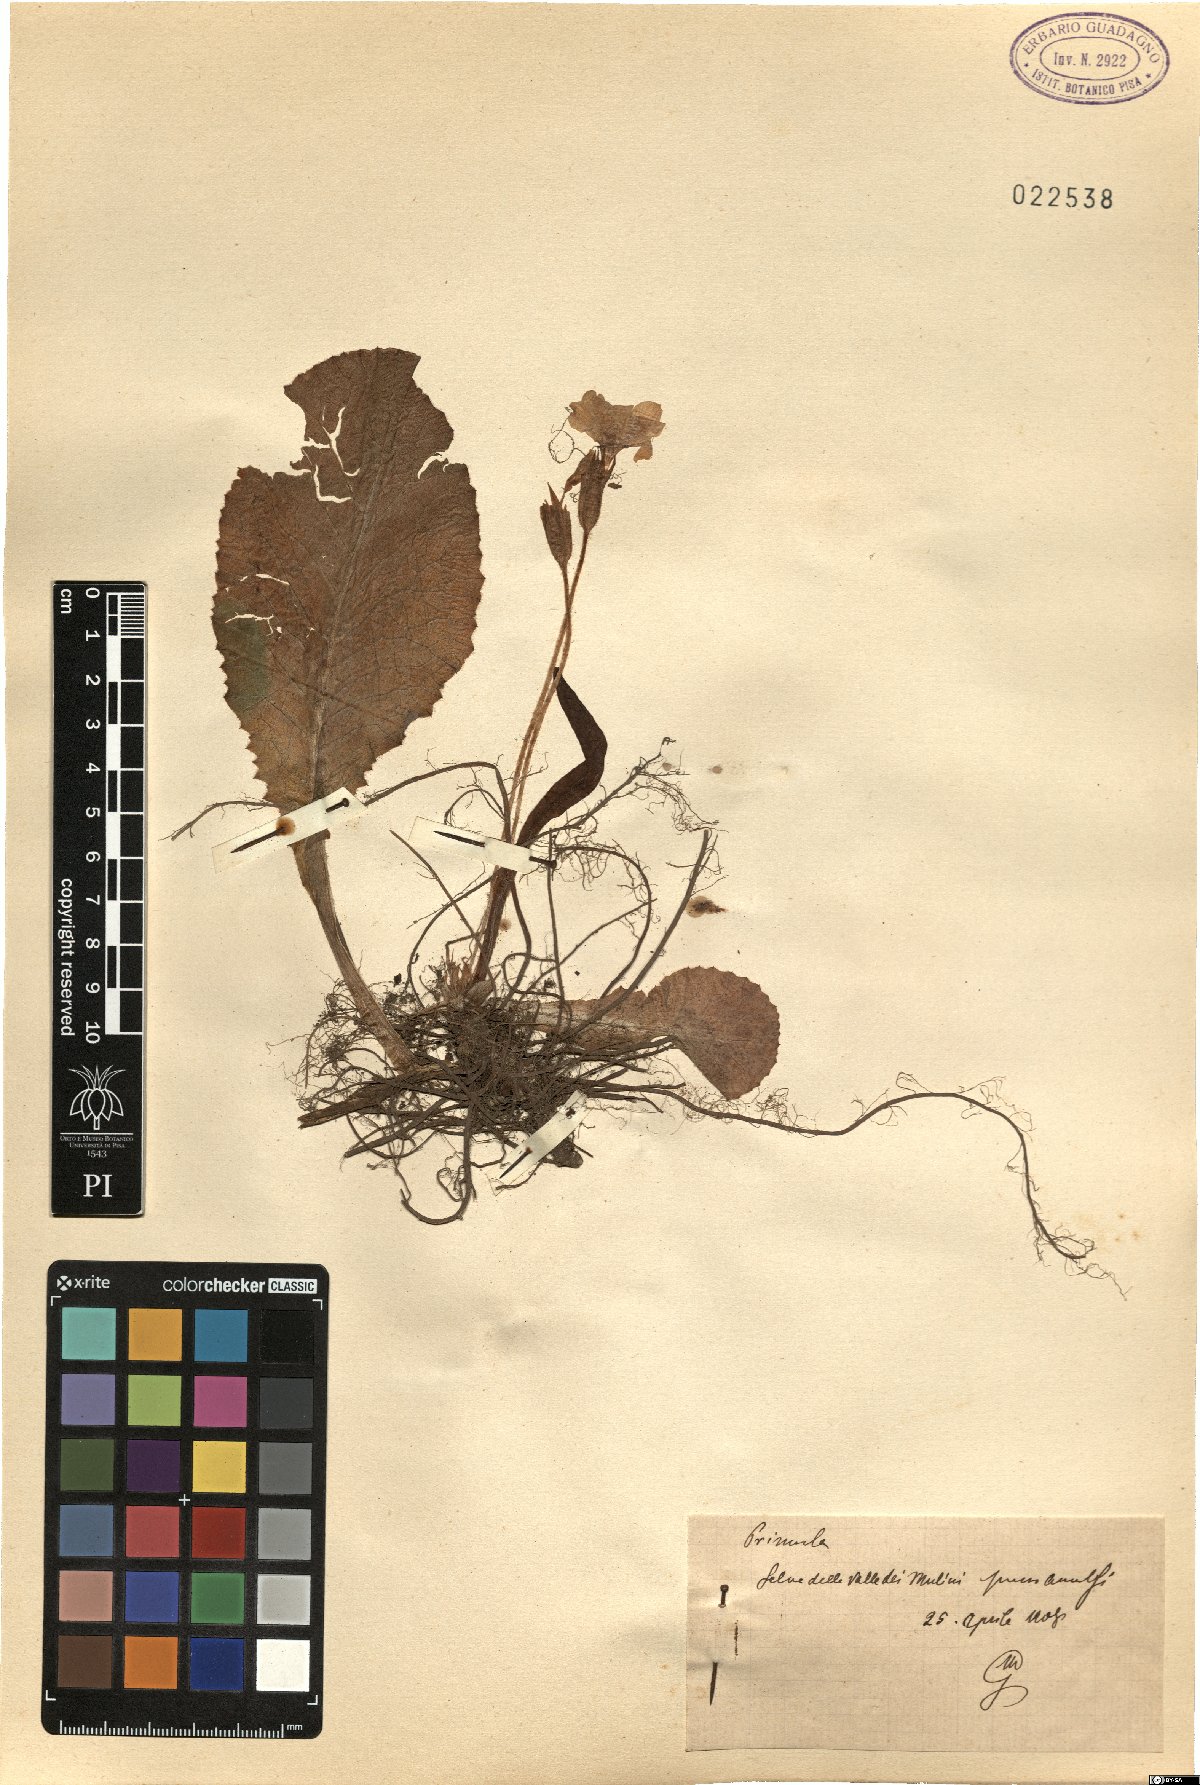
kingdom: Plantae
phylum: Tracheophyta
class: Magnoliopsida
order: Ericales
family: Primulaceae
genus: Primula
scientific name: Primula
